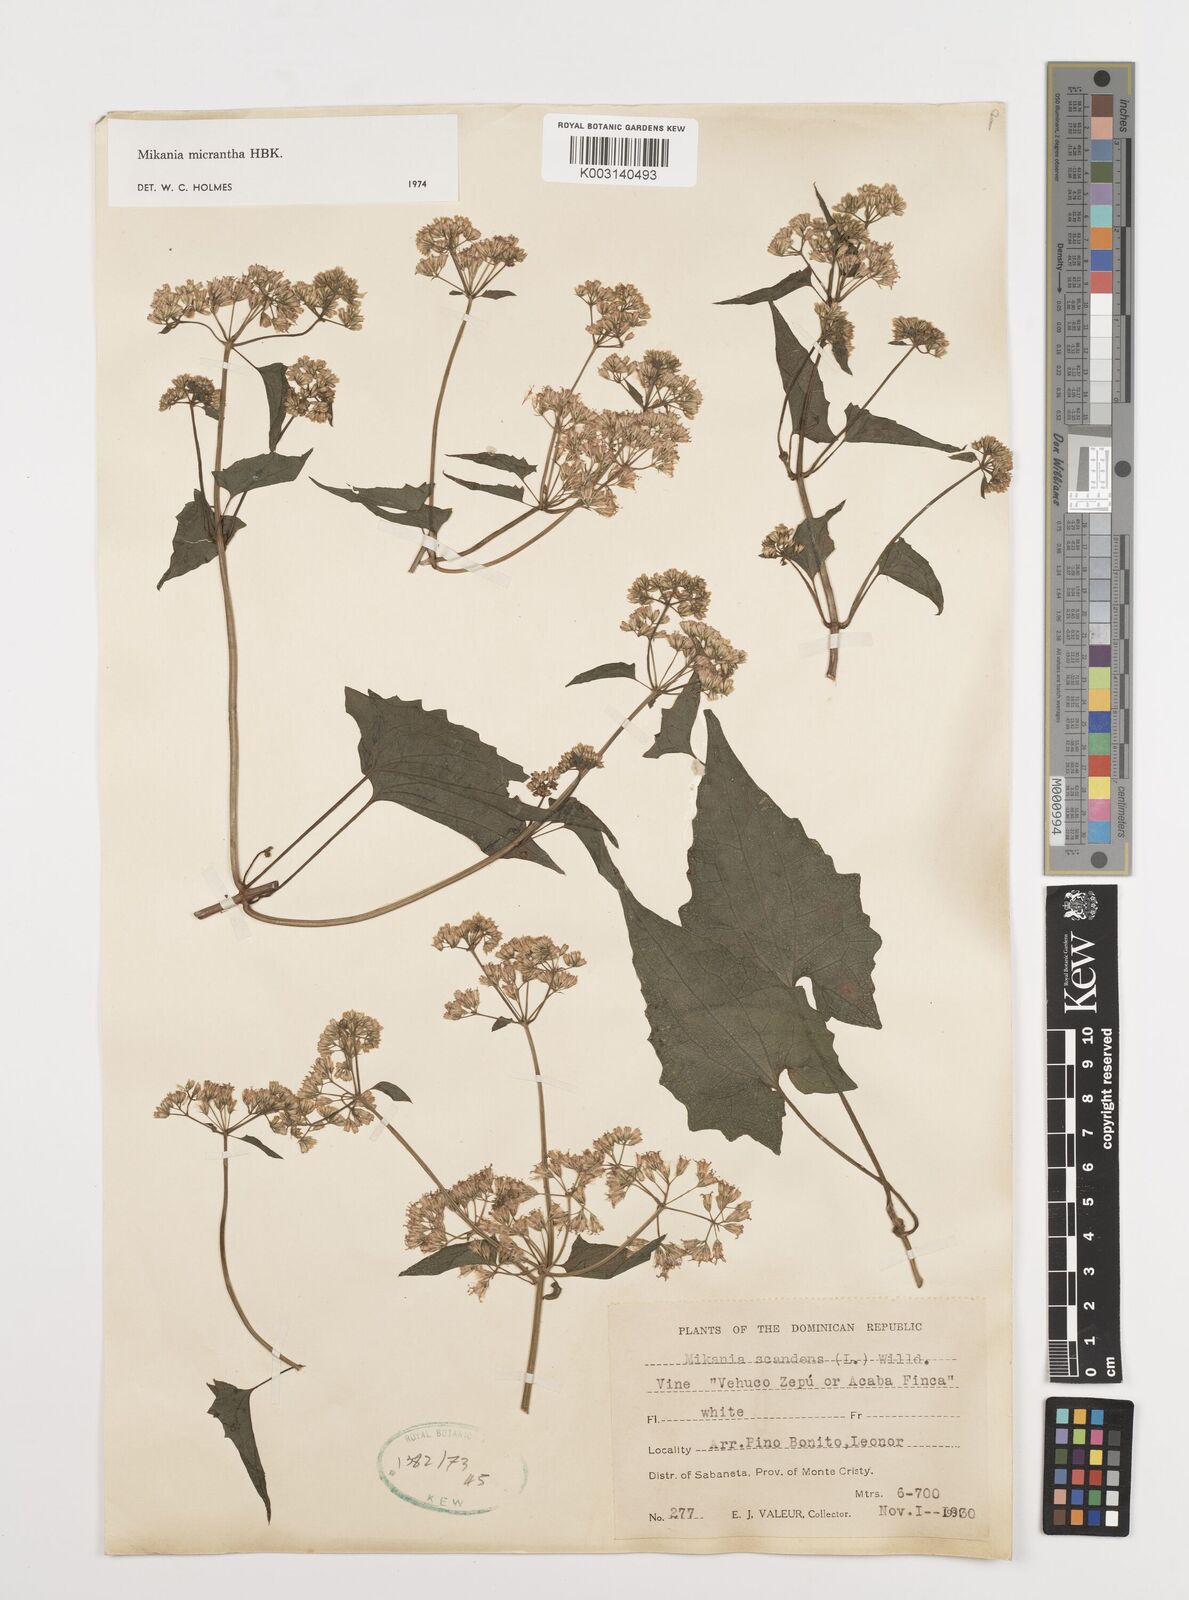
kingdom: Plantae
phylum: Tracheophyta
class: Magnoliopsida
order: Asterales
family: Asteraceae
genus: Mikania
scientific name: Mikania micrantha
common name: Mile-a-minute
